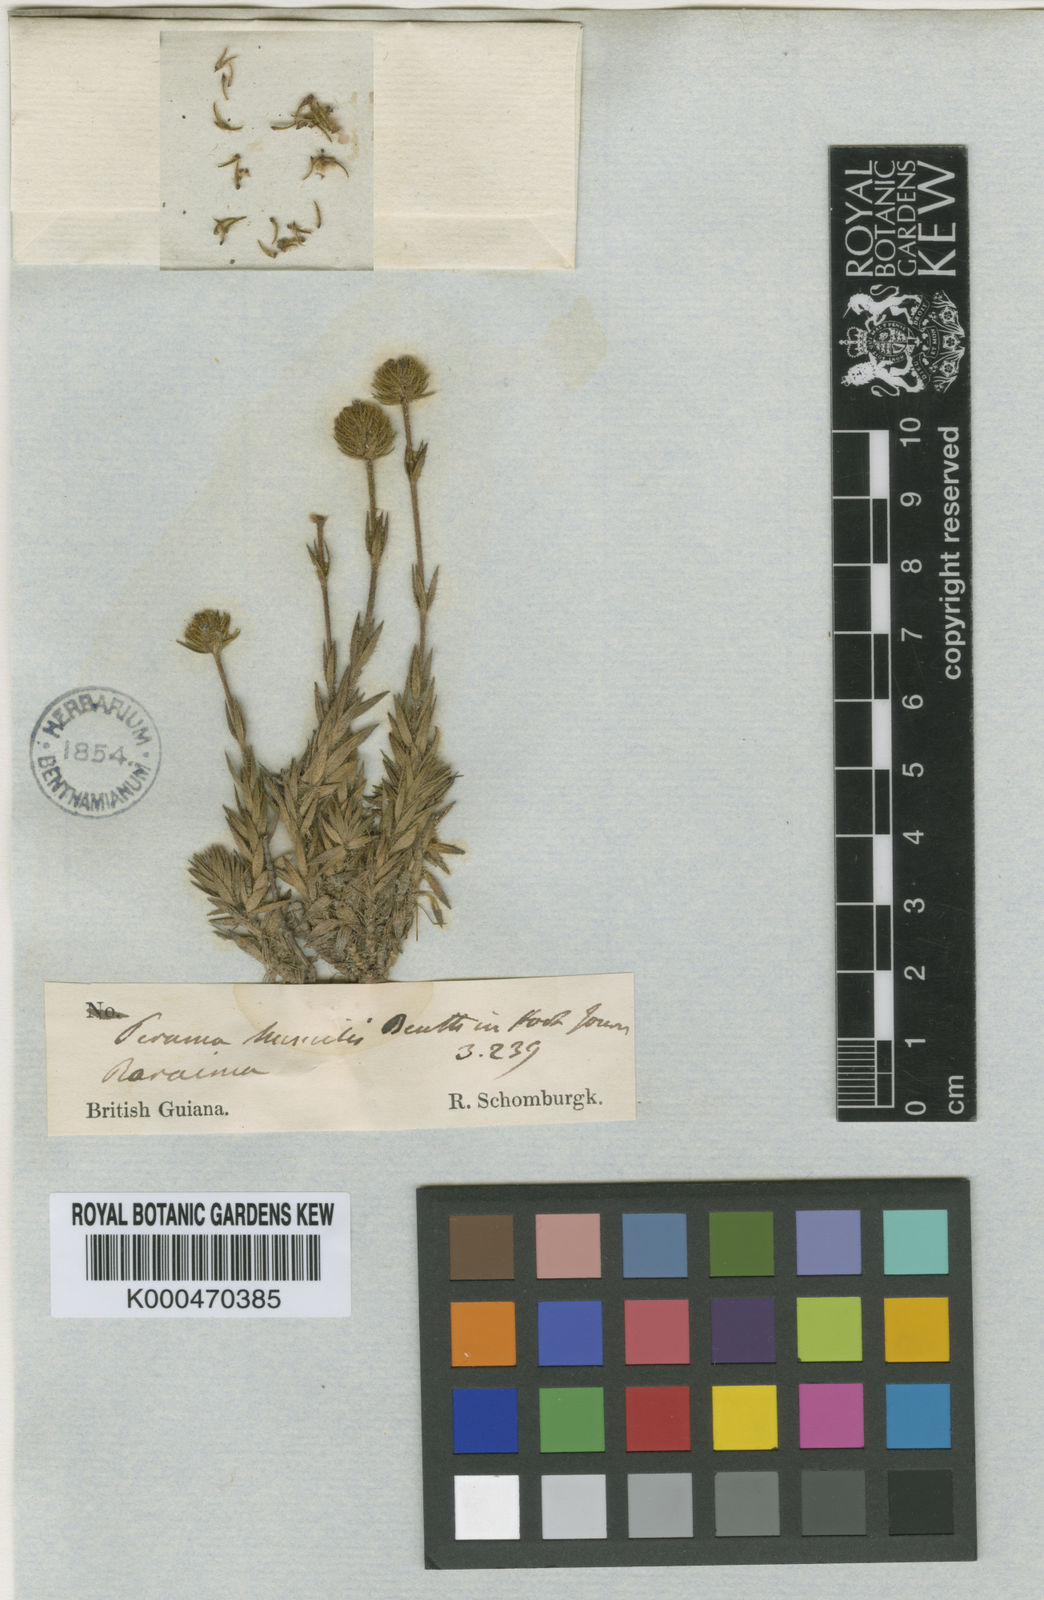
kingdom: Plantae
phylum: Tracheophyta
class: Magnoliopsida
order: Gentianales
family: Rubiaceae
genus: Perama
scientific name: Perama humilis
